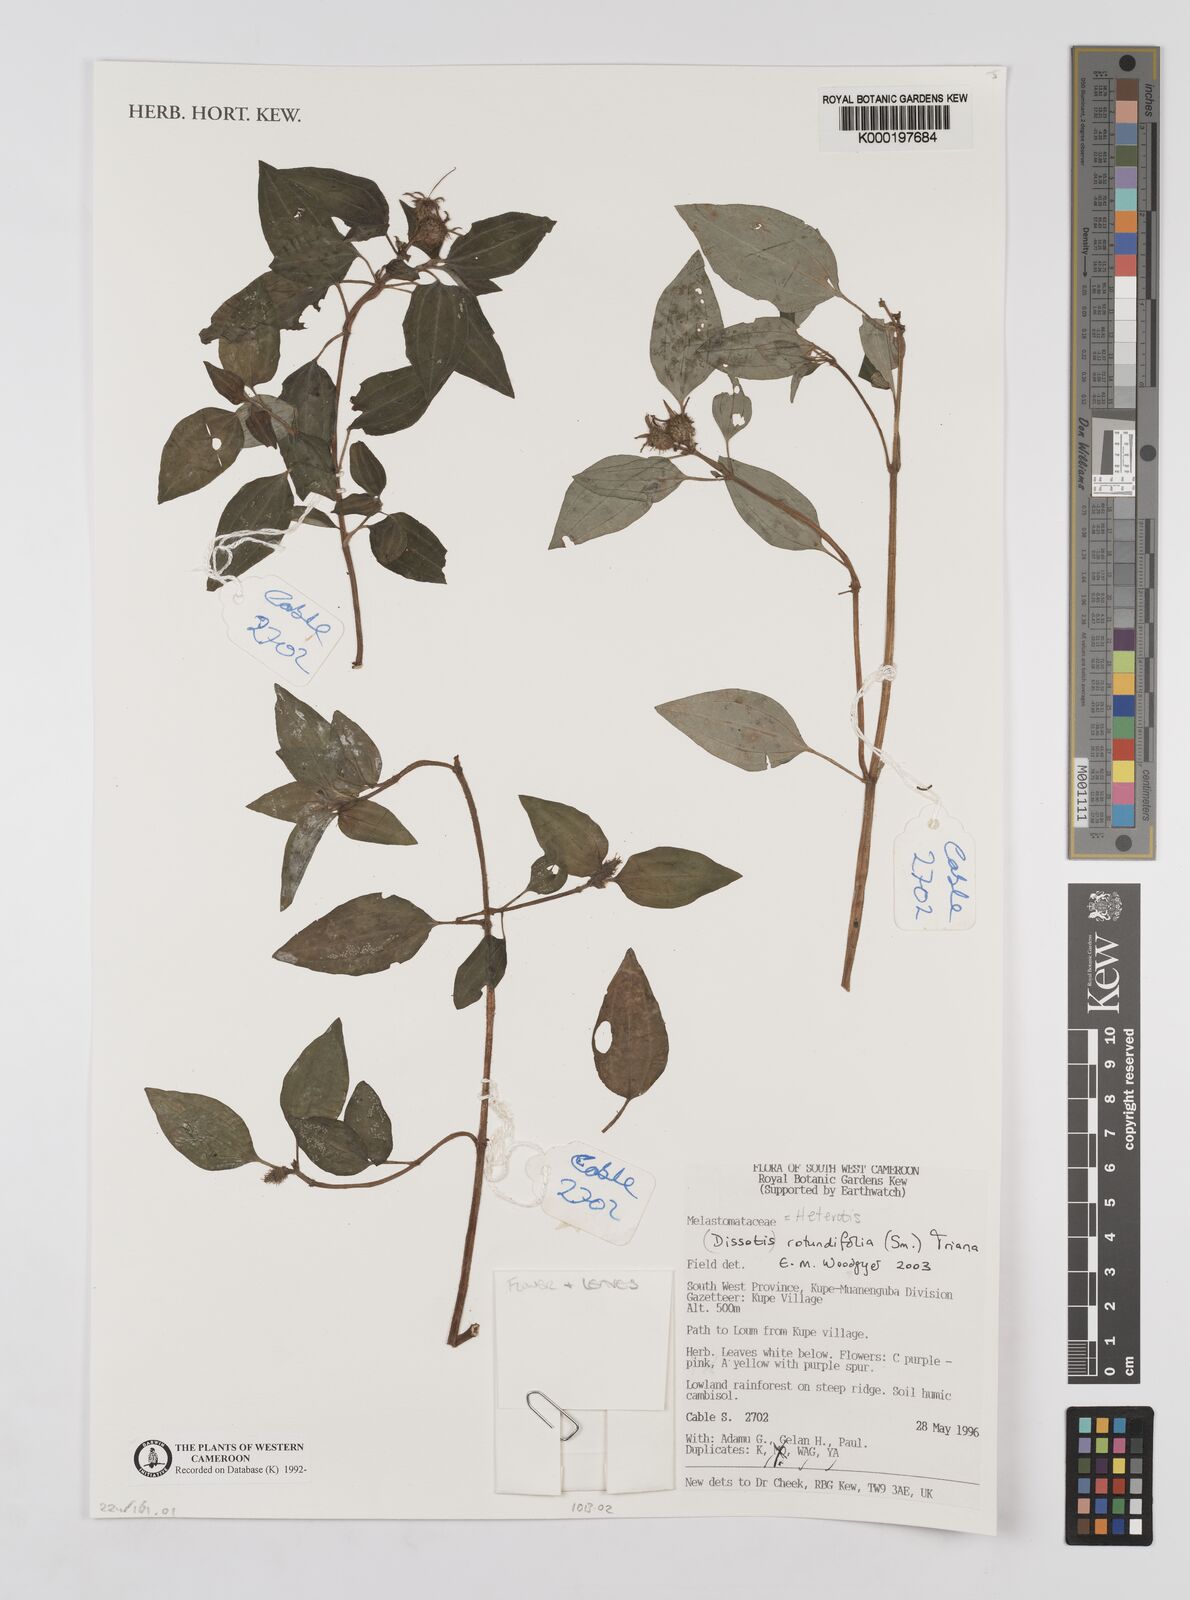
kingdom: Plantae
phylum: Tracheophyta
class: Magnoliopsida
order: Myrtales
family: Melastomataceae
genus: Heterotis
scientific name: Heterotis rotundifolia
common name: Pinklady
